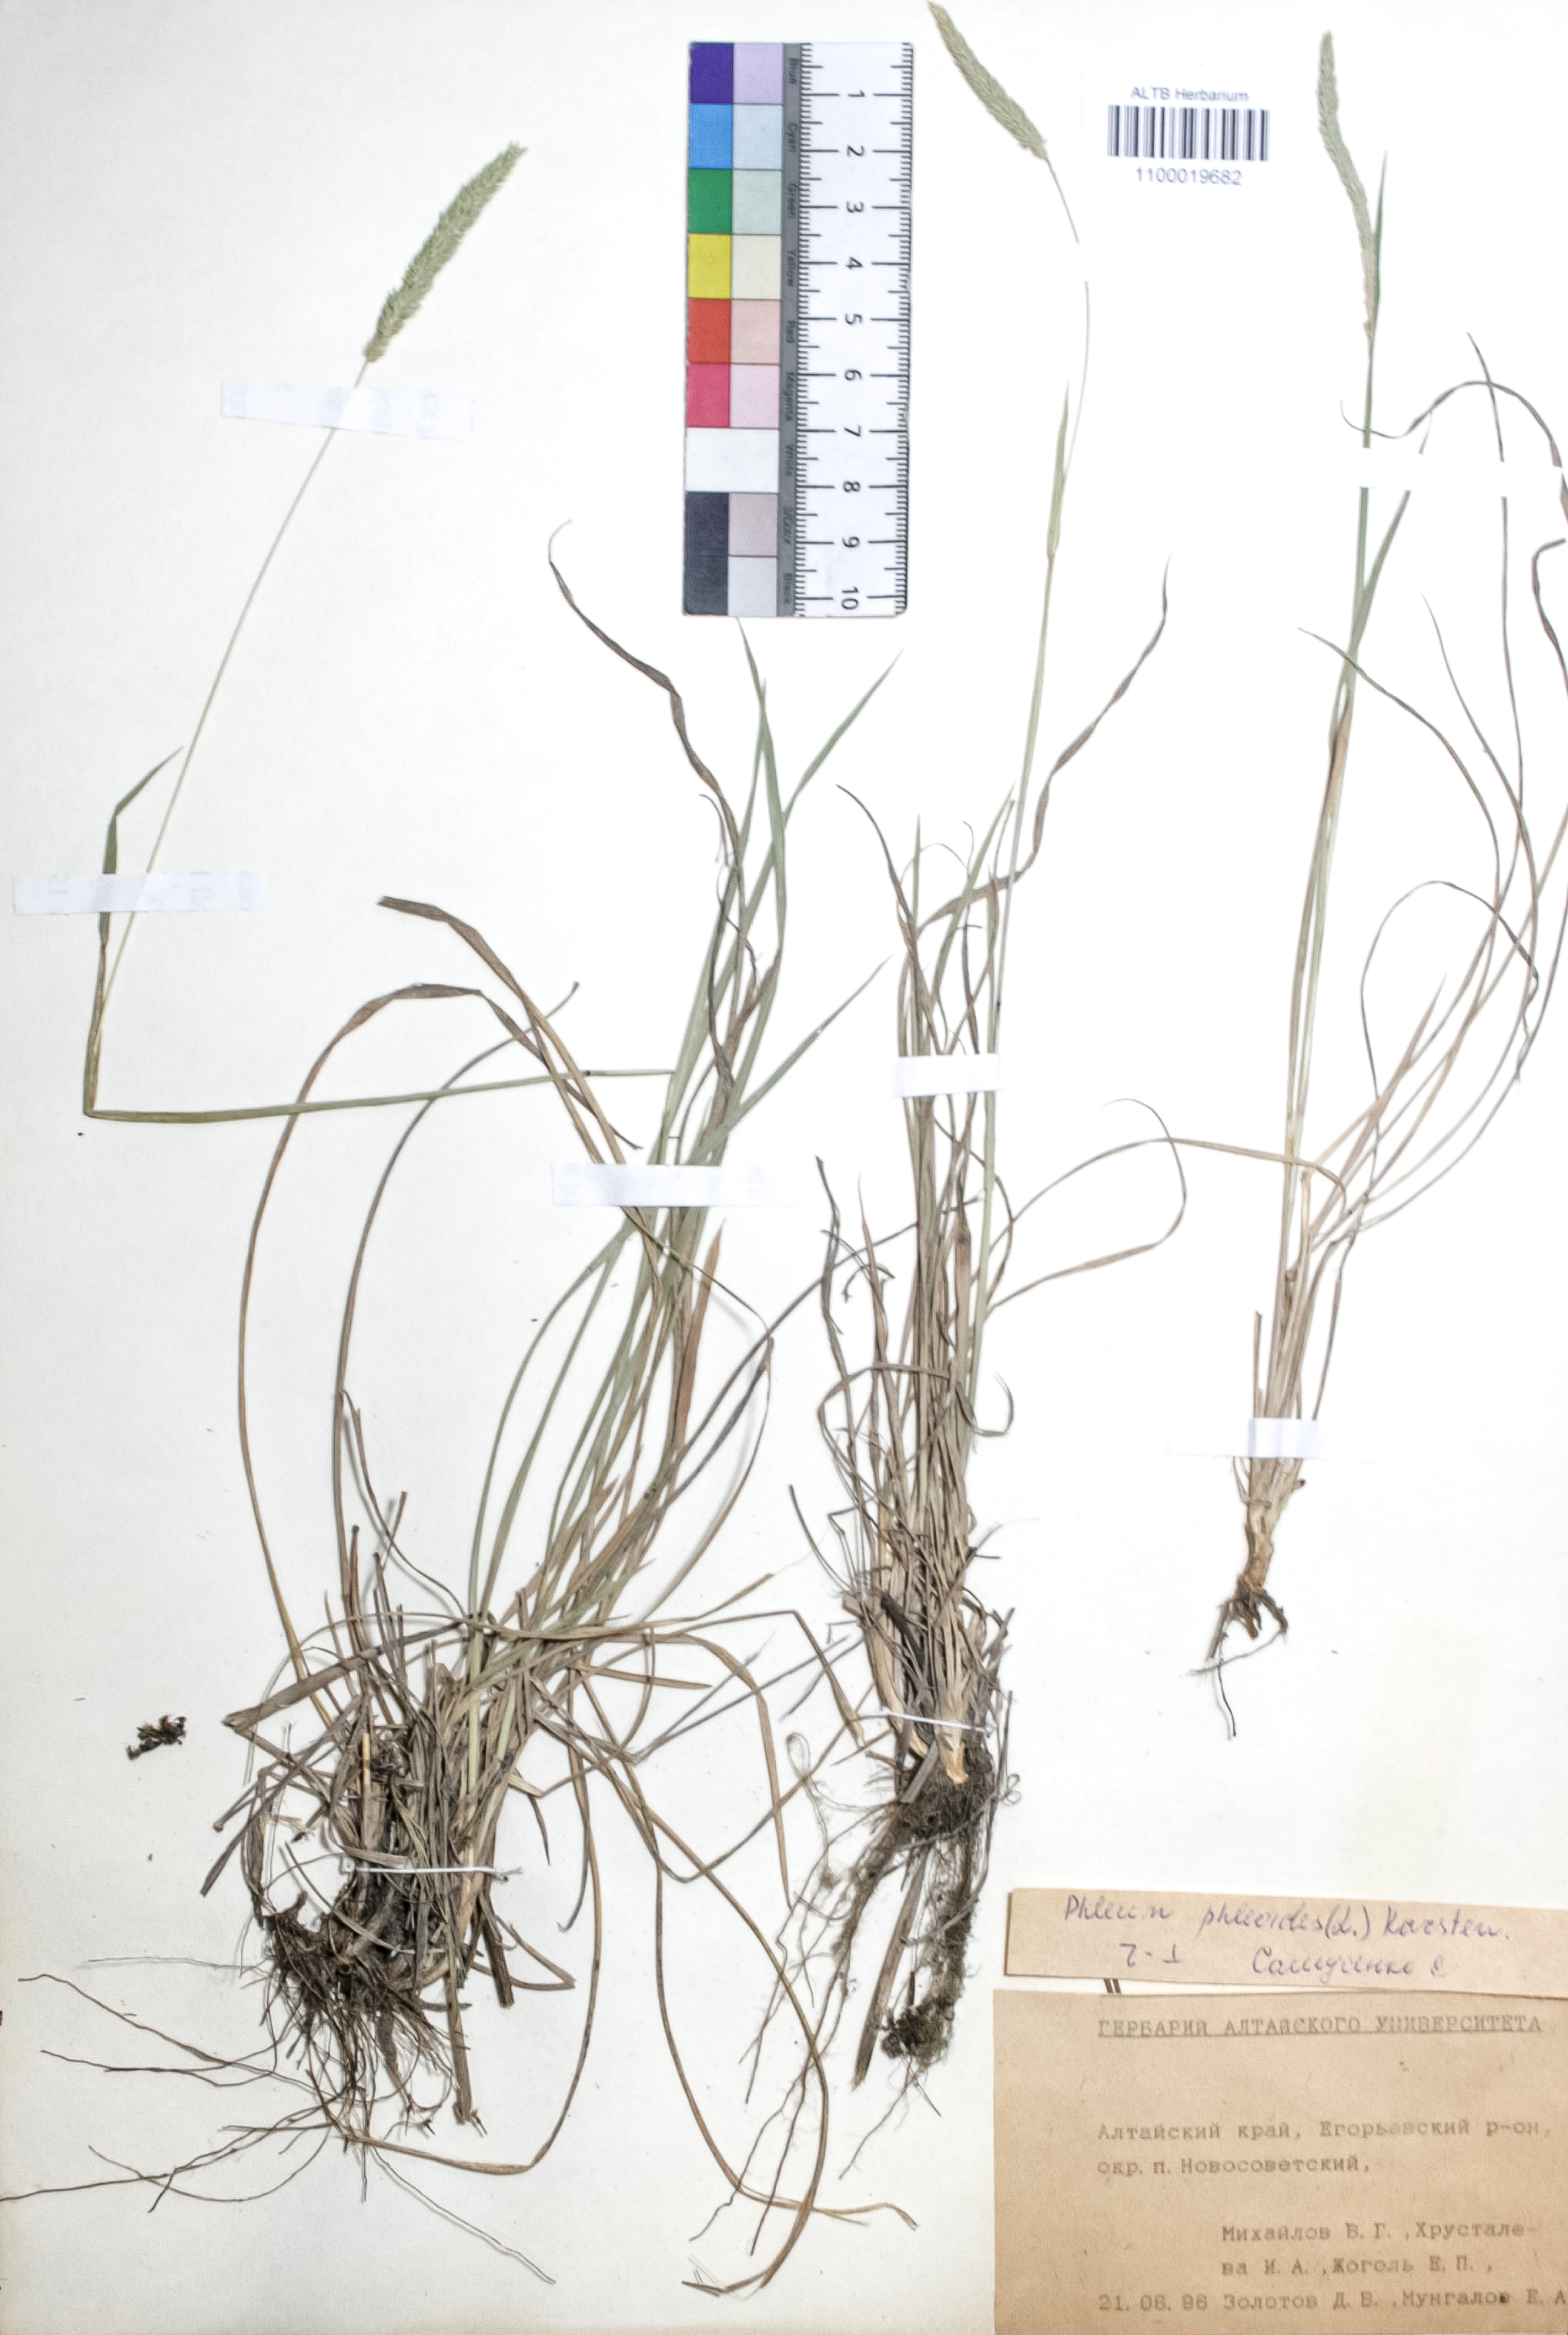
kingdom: Plantae
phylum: Tracheophyta
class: Liliopsida
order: Poales
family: Poaceae
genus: Phleum
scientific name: Phleum phleoides
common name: Purple-stem cat's-tail
